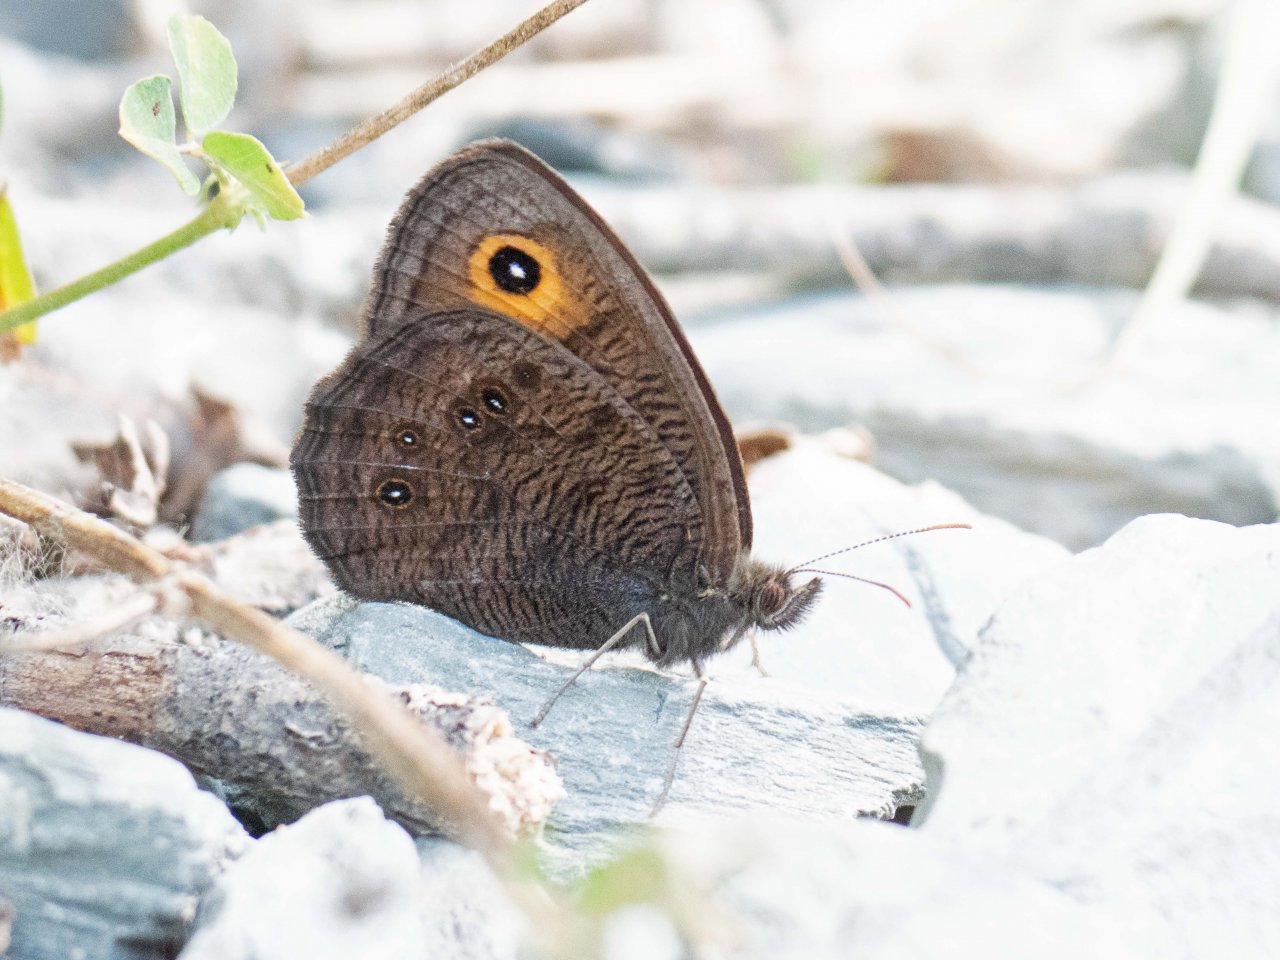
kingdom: Animalia
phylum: Arthropoda
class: Insecta
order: Lepidoptera
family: Nymphalidae
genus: Cercyonis
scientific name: Cercyonis pegala
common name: Common Wood-Nymph
